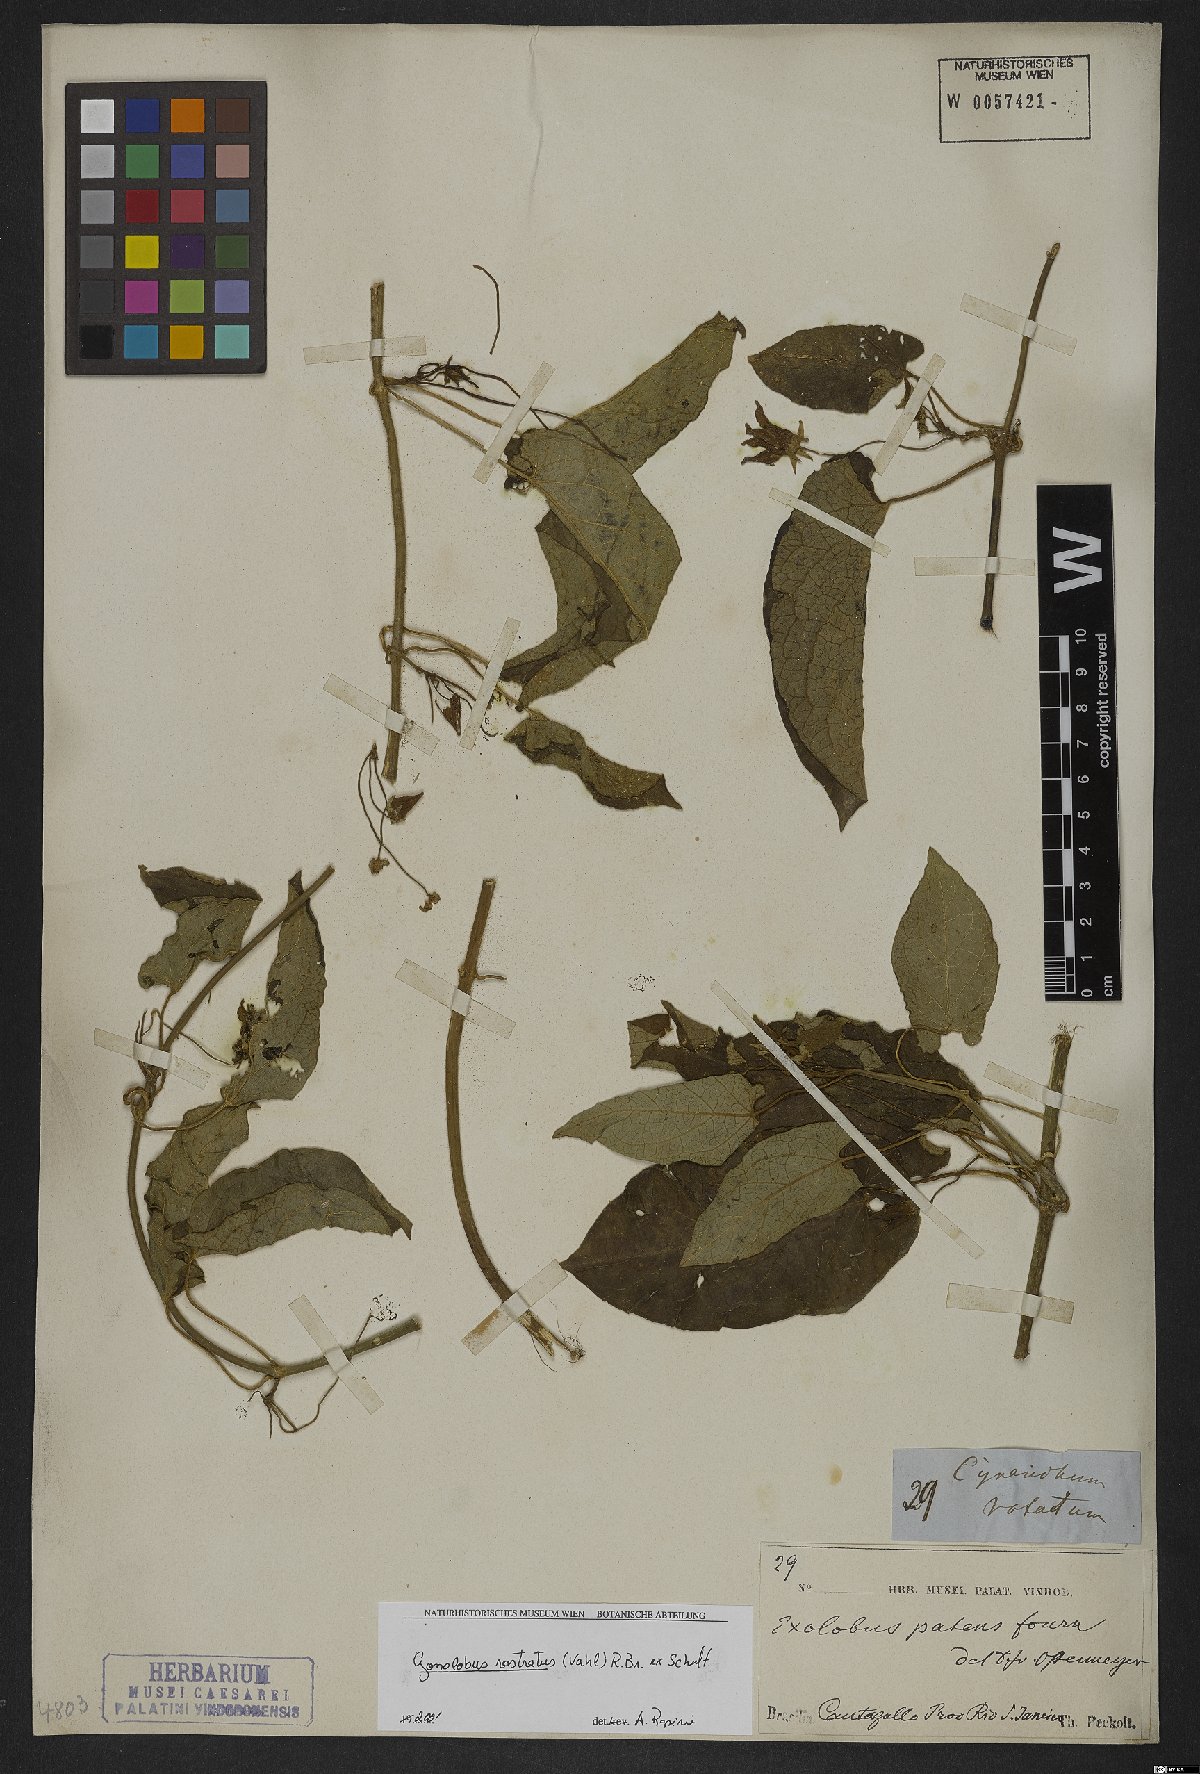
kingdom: Plantae
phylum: Tracheophyta
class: Magnoliopsida
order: Gentianales
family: Apocynaceae
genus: Gonolobus
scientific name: Gonolobus rostratus
